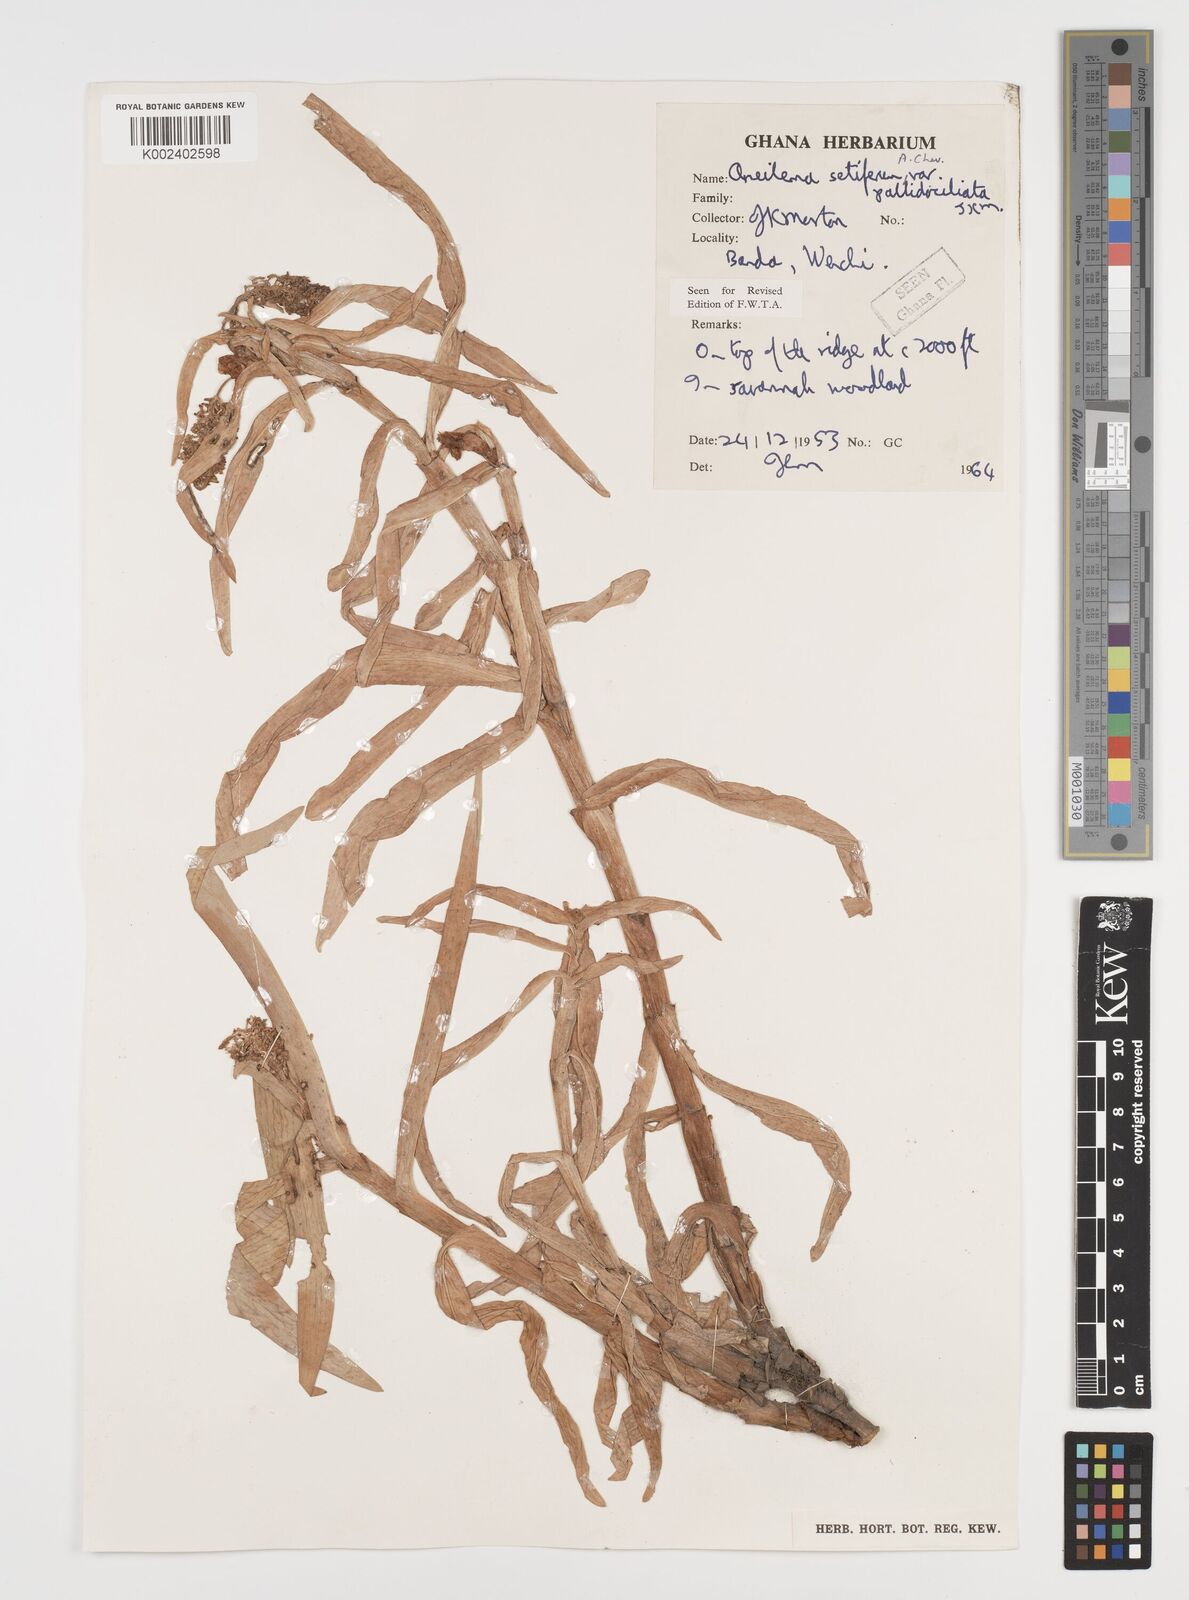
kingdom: Plantae
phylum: Tracheophyta
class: Liliopsida
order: Commelinales
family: Commelinaceae
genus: Aneilema
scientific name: Aneilema setiferum
